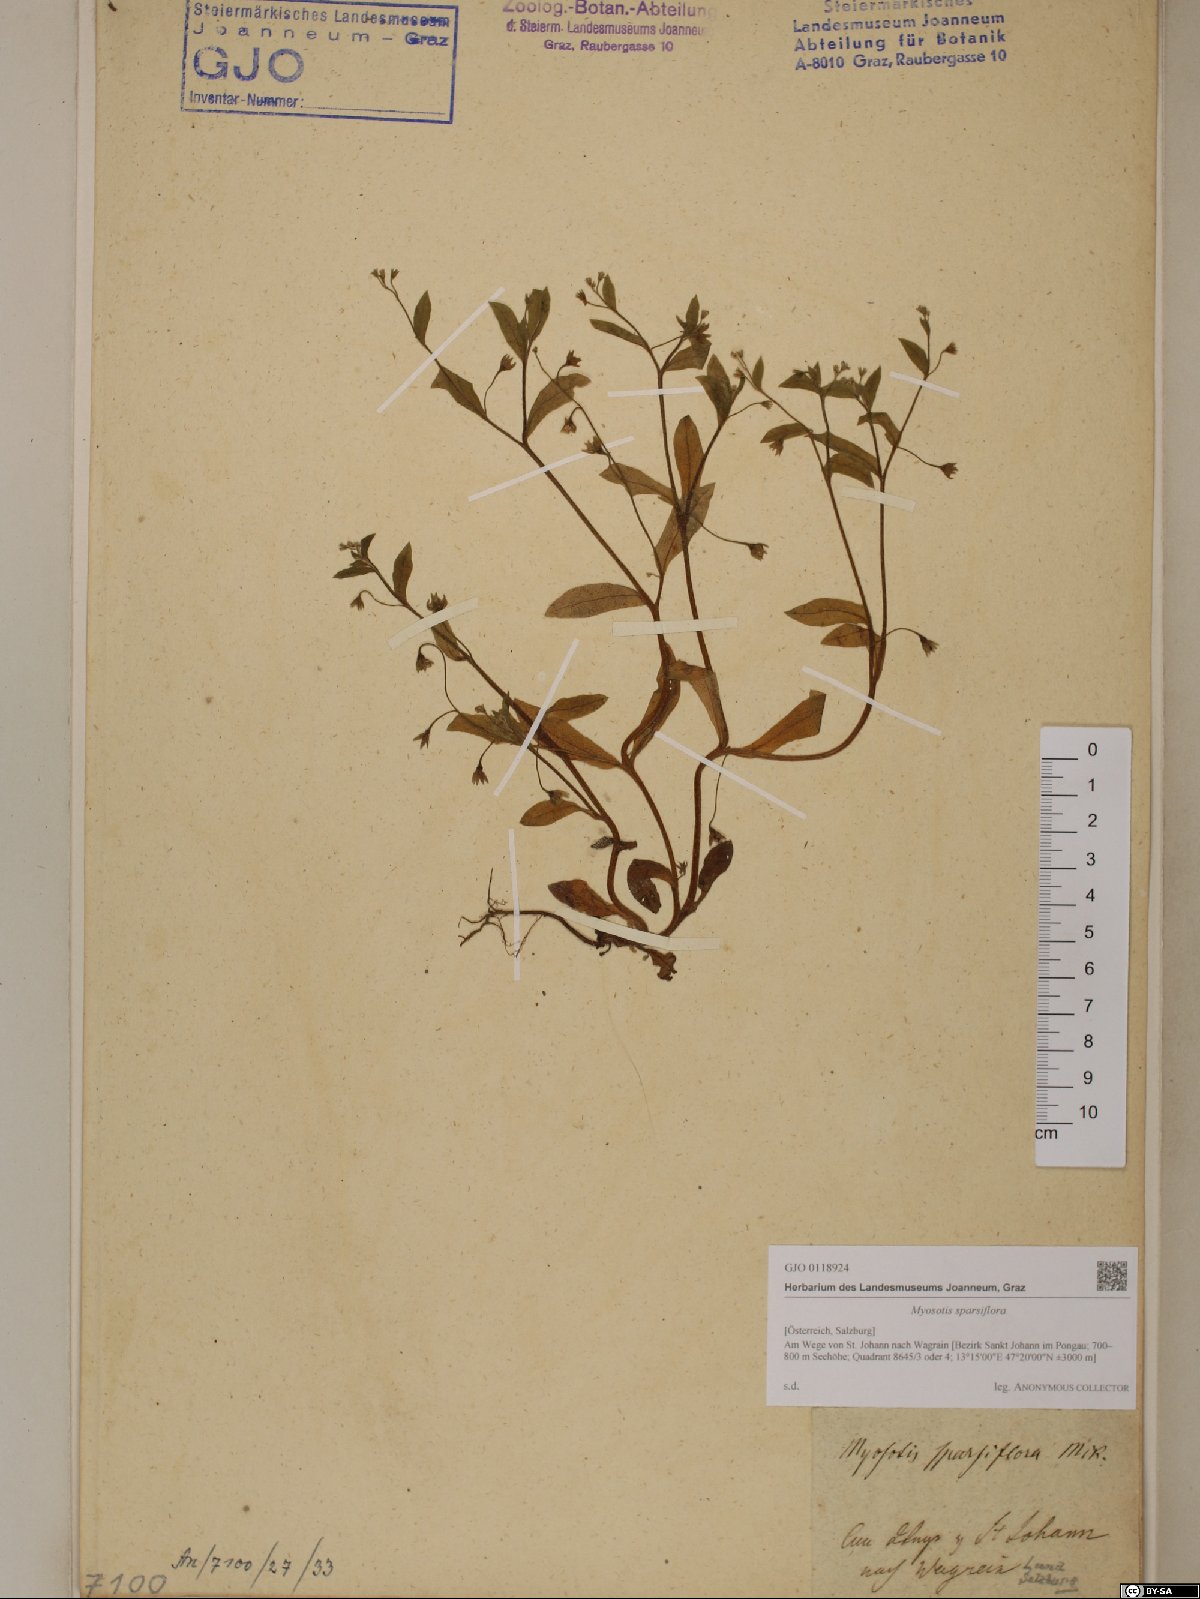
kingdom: Plantae
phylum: Tracheophyta
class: Magnoliopsida
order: Boraginales
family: Boraginaceae
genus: Myosotis
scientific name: Myosotis sparsiflora
